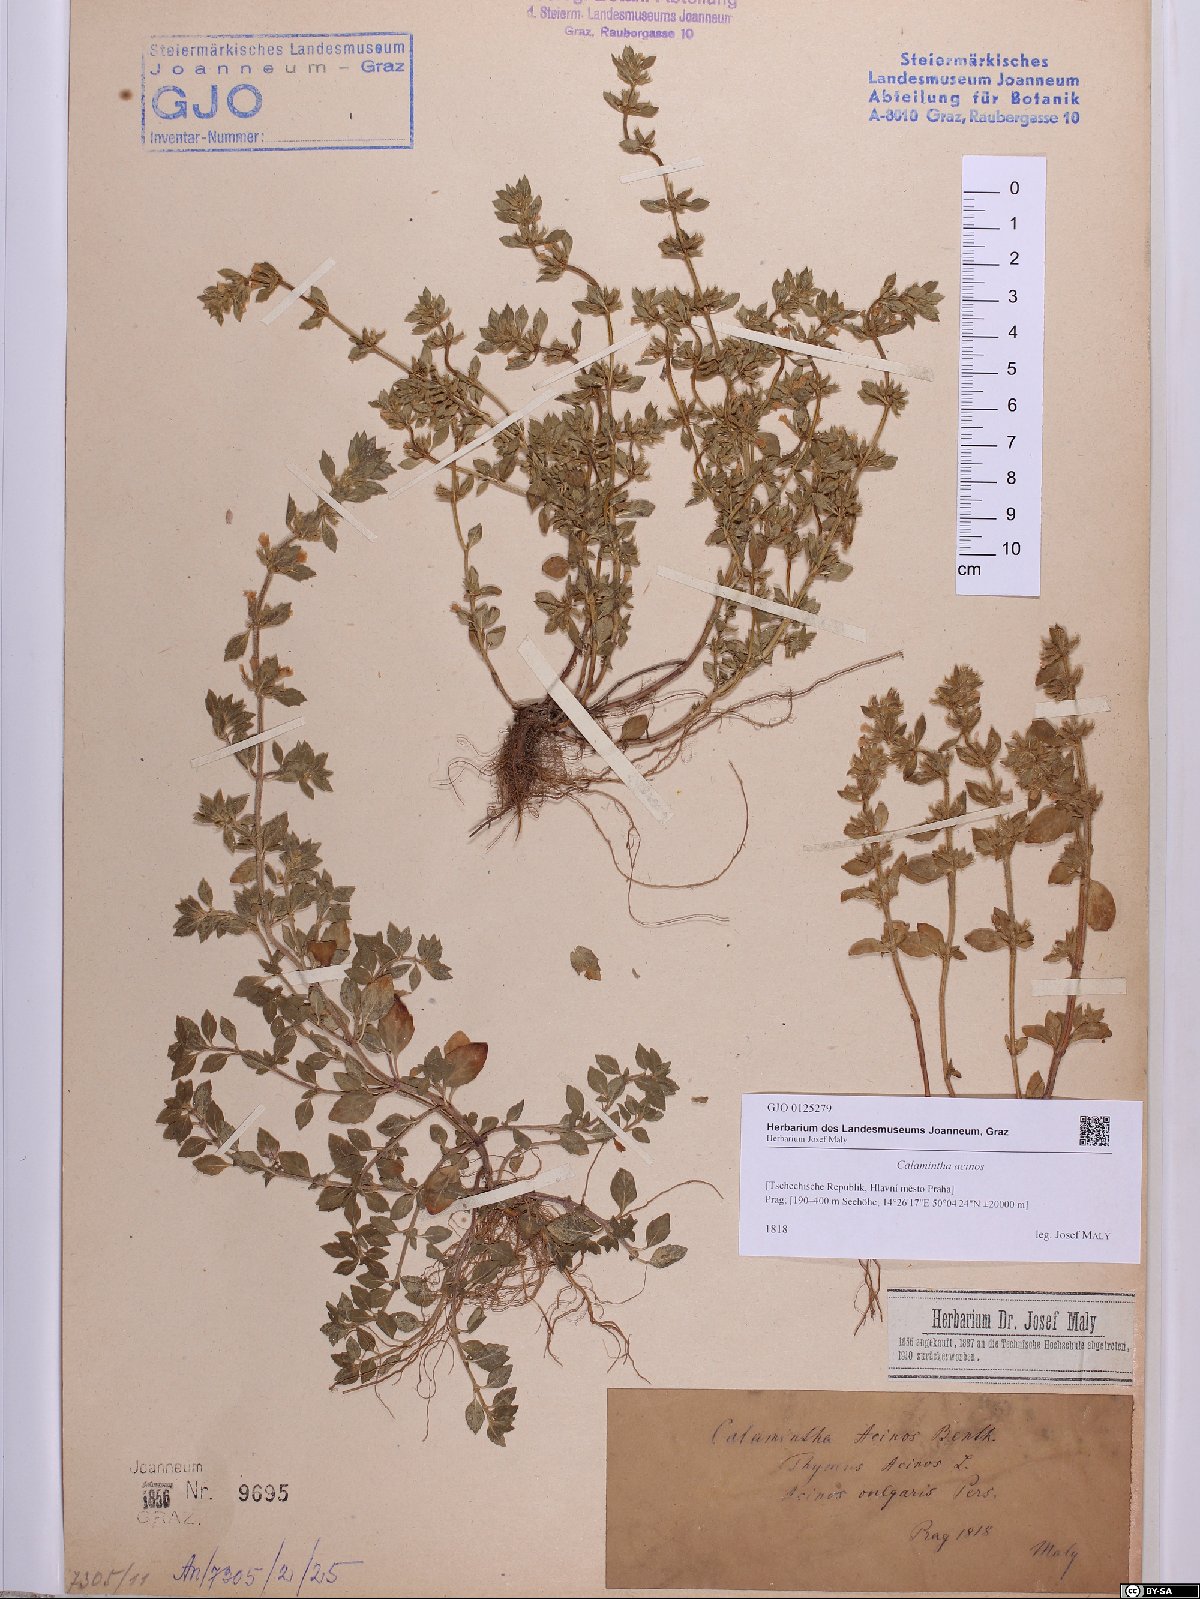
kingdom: Plantae
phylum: Tracheophyta
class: Magnoliopsida
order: Lamiales
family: Lamiaceae
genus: Clinopodium
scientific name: Clinopodium acinos
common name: Basil thyme
